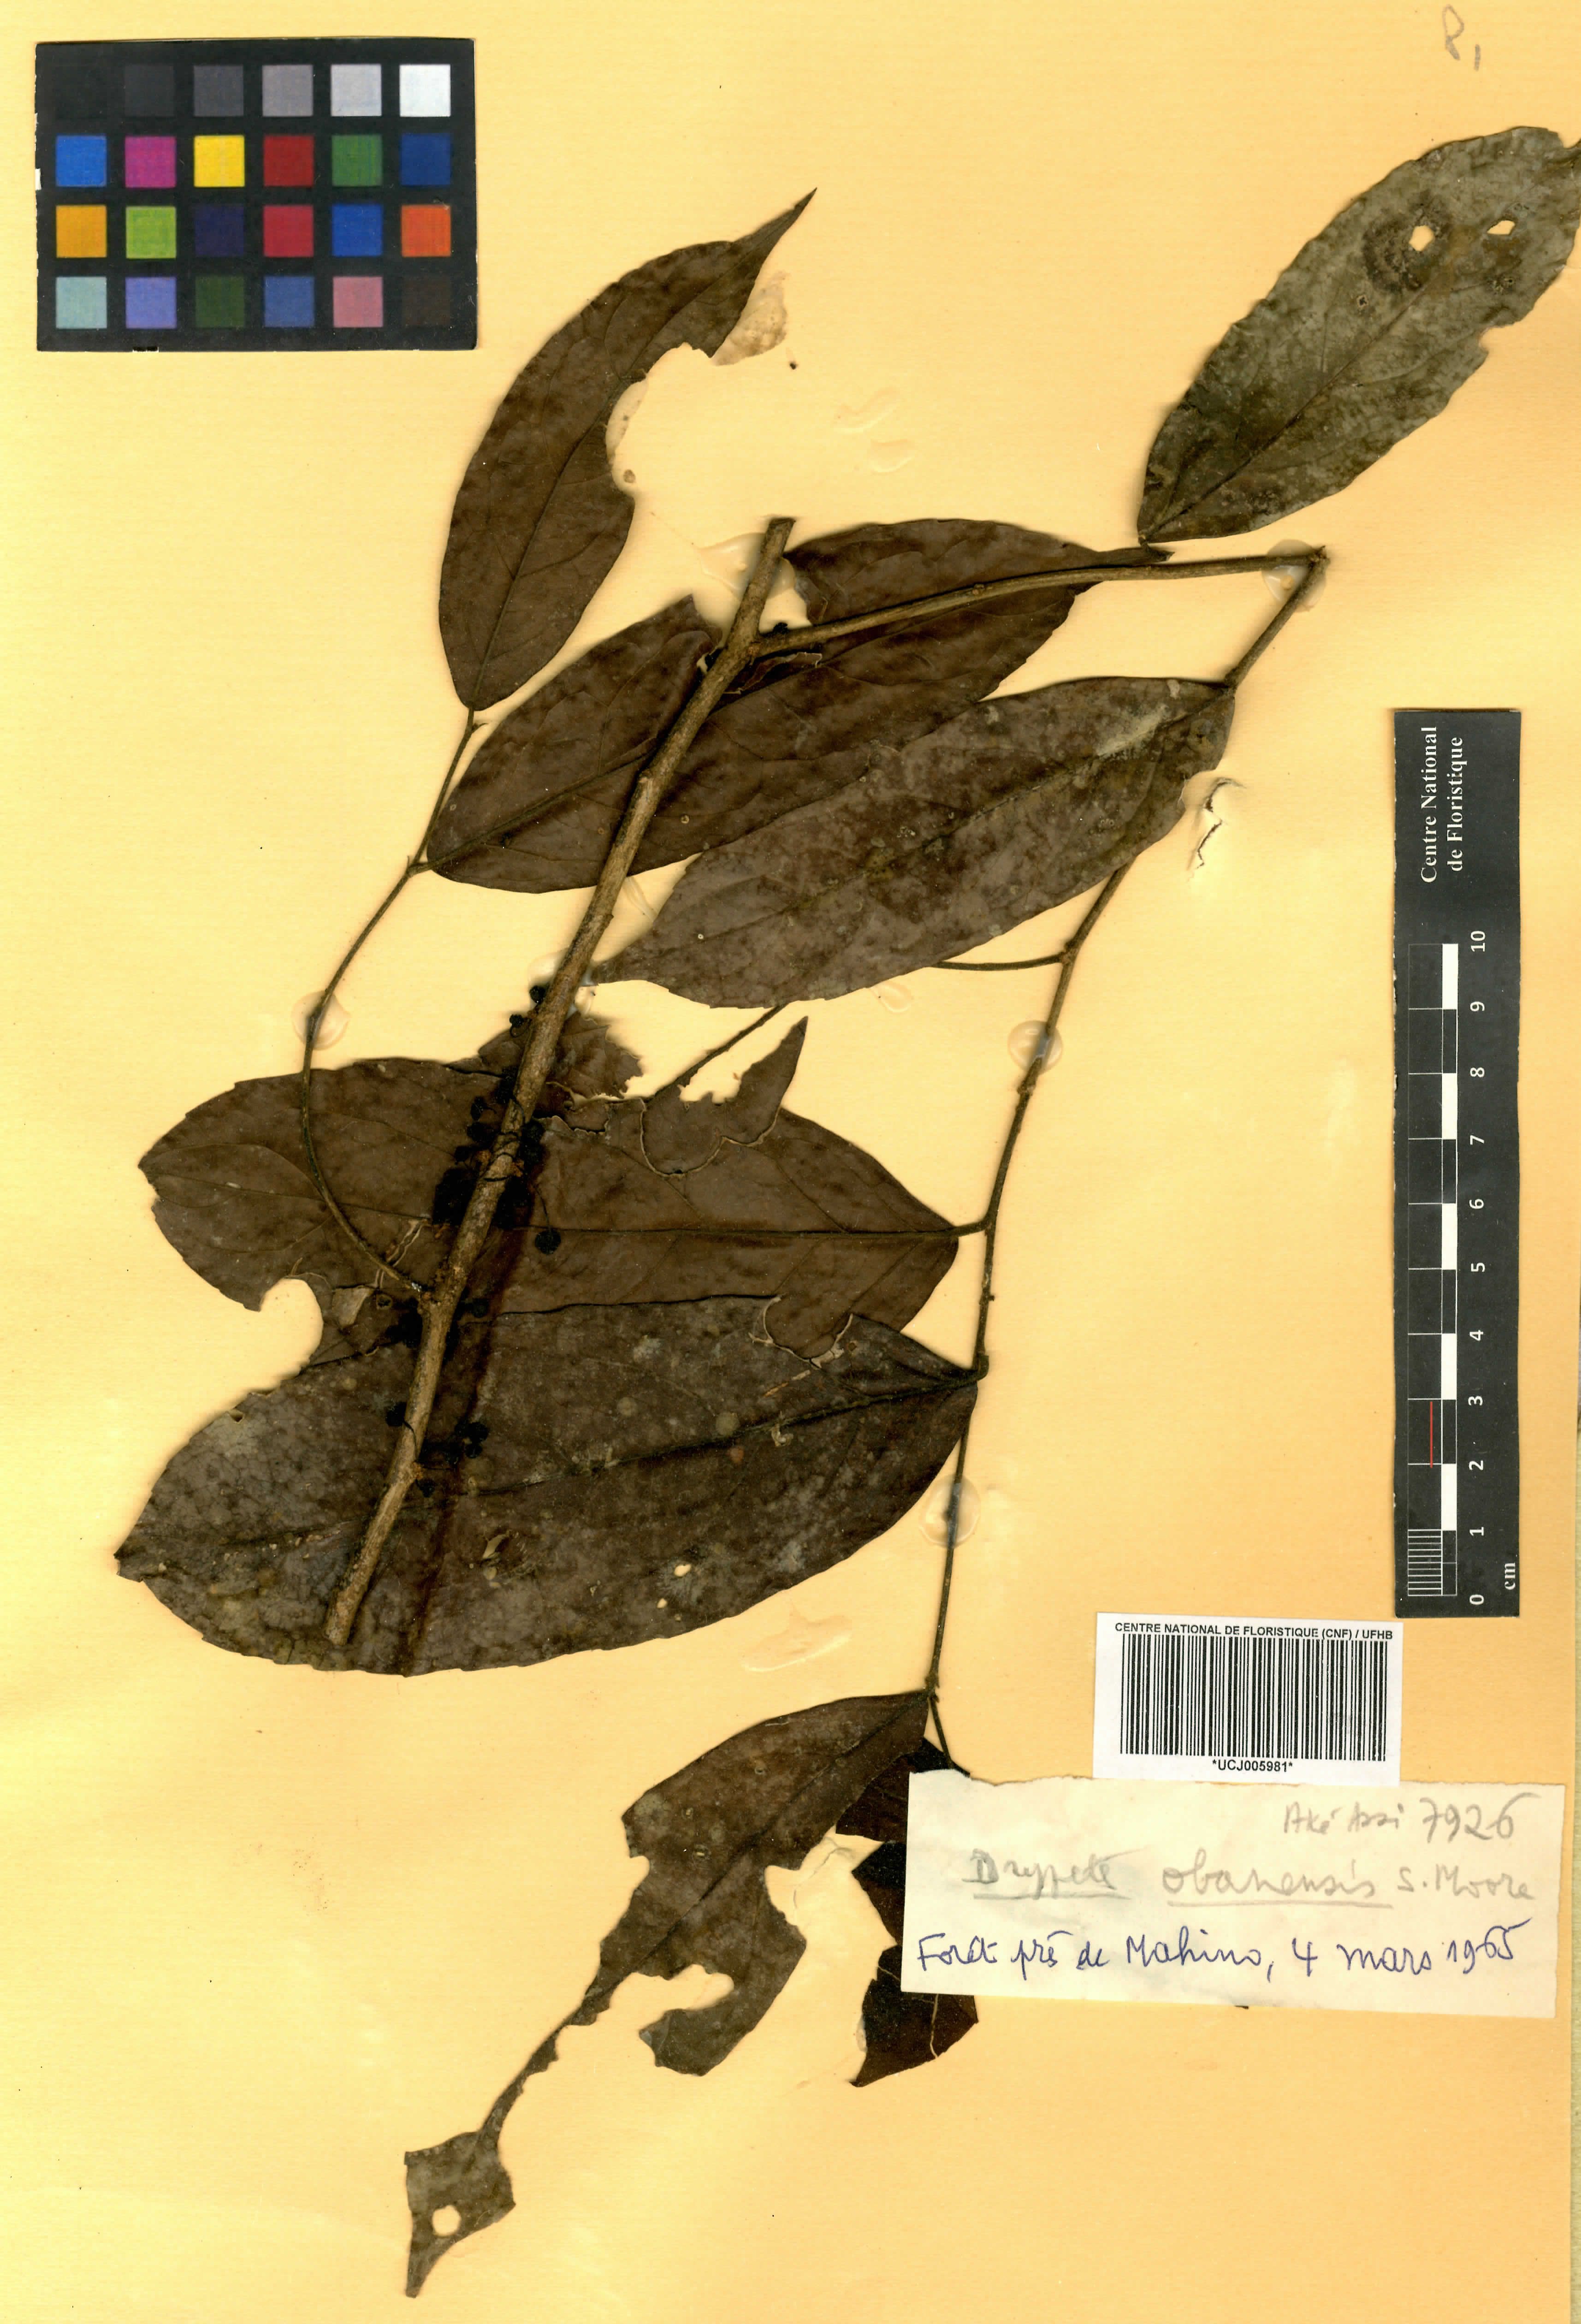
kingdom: Plantae
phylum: Tracheophyta
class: Magnoliopsida
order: Malpighiales
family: Putranjivaceae
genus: Drypetes
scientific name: Drypetes obanensis
